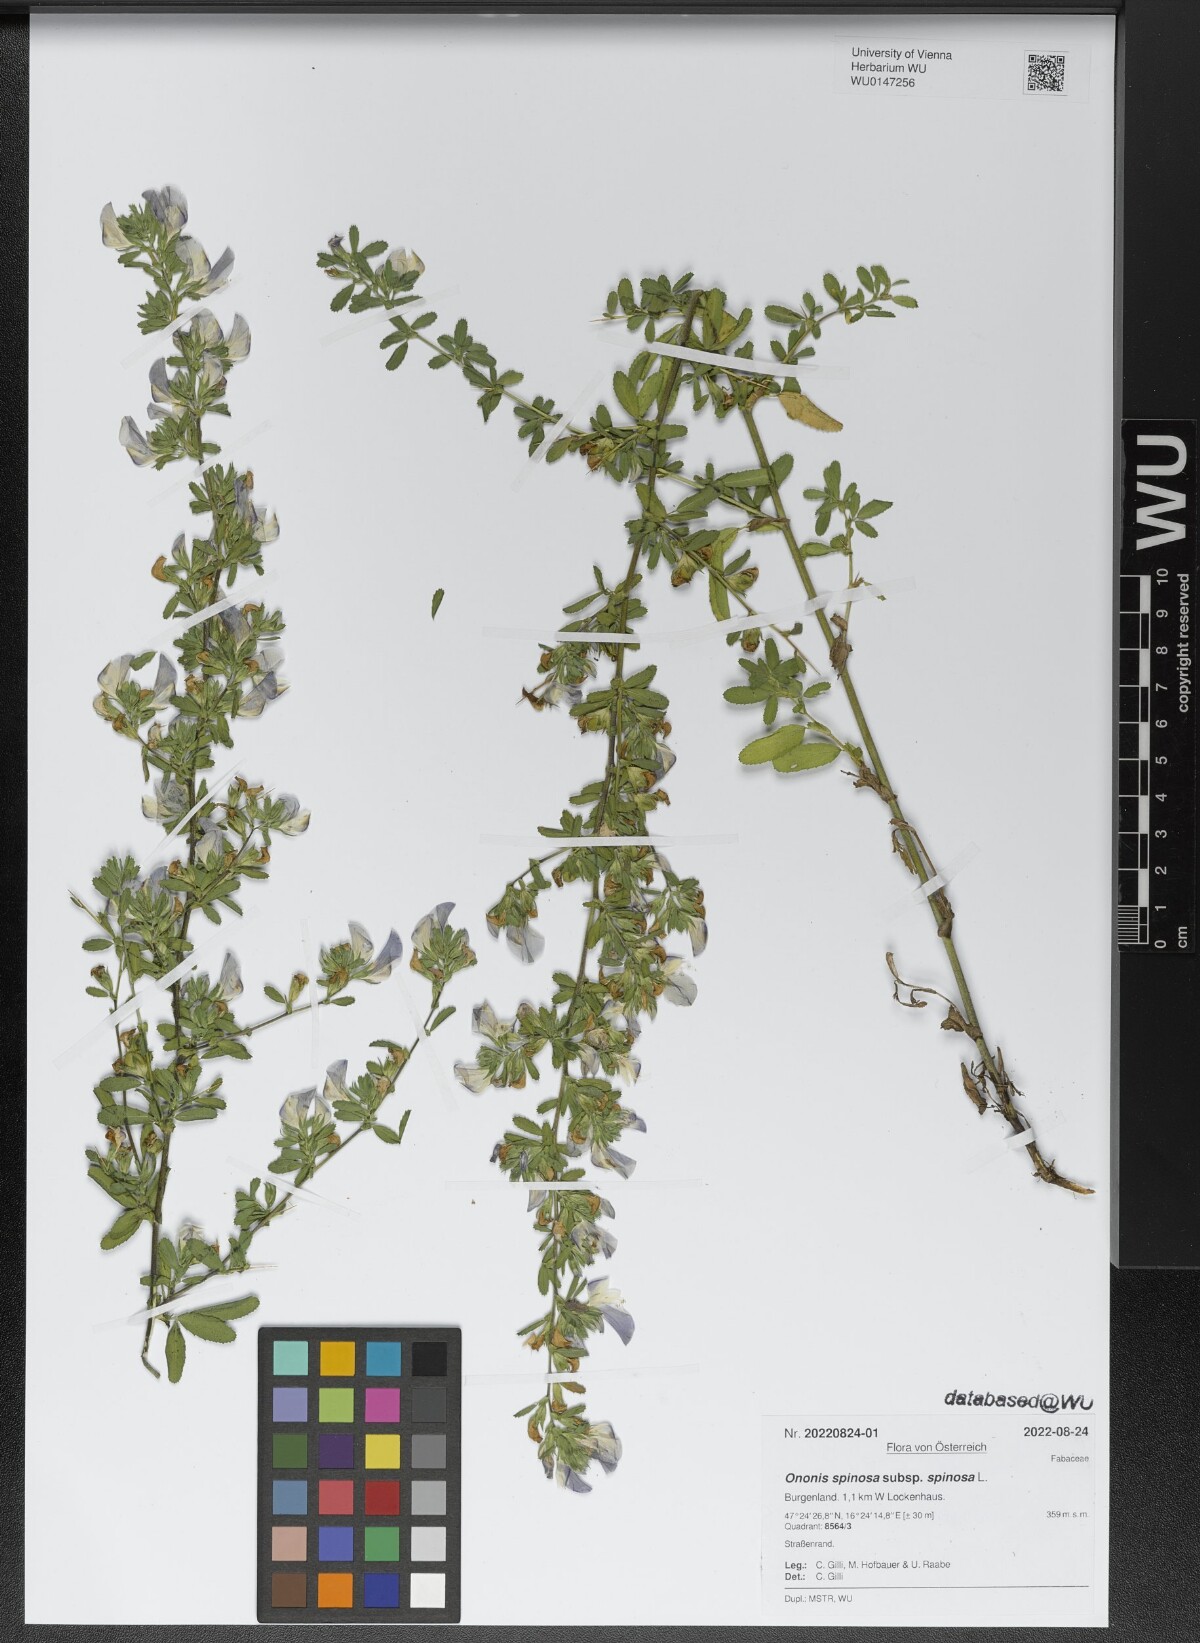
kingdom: Plantae
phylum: Tracheophyta
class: Magnoliopsida
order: Fabales
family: Fabaceae
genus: Ononis
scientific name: Ononis spinosa
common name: Spiny restharrow
